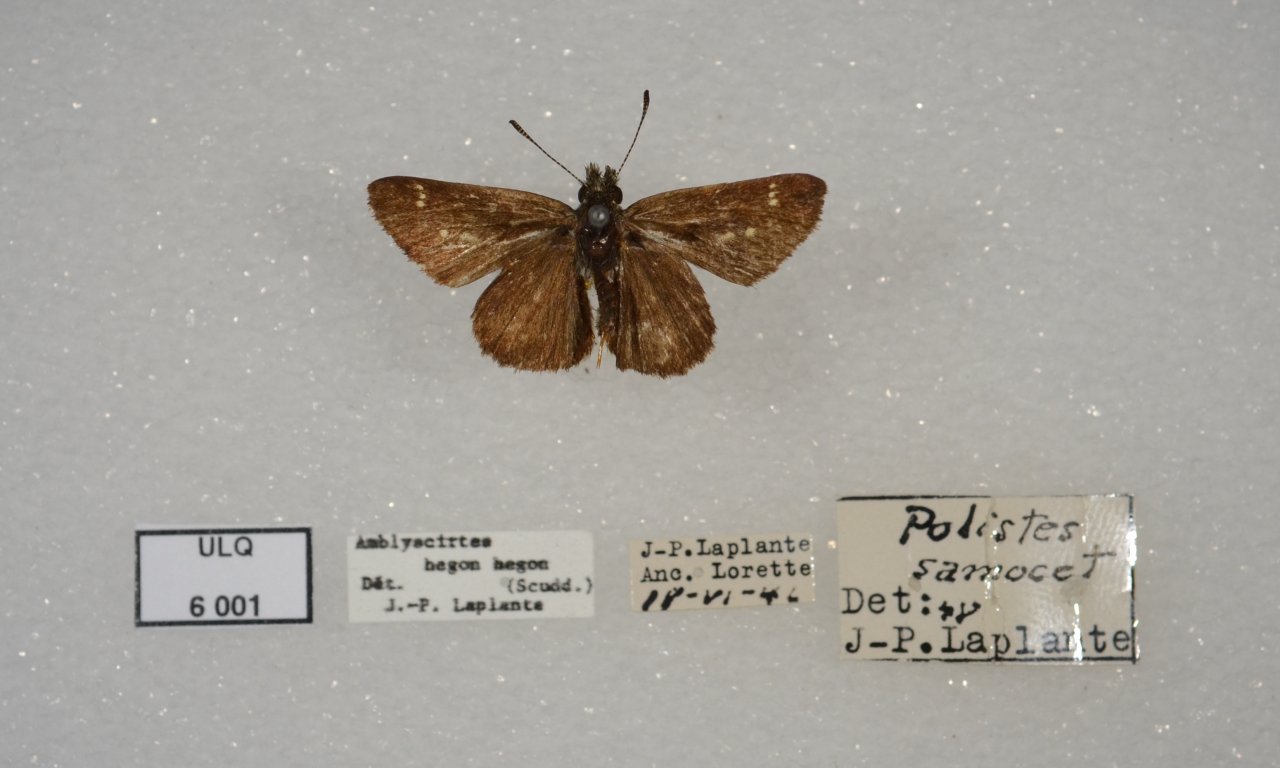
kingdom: Animalia
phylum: Arthropoda
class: Insecta
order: Lepidoptera
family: Hesperiidae
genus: Mastor
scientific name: Mastor hegon
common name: Pepper and Salt Skipper
